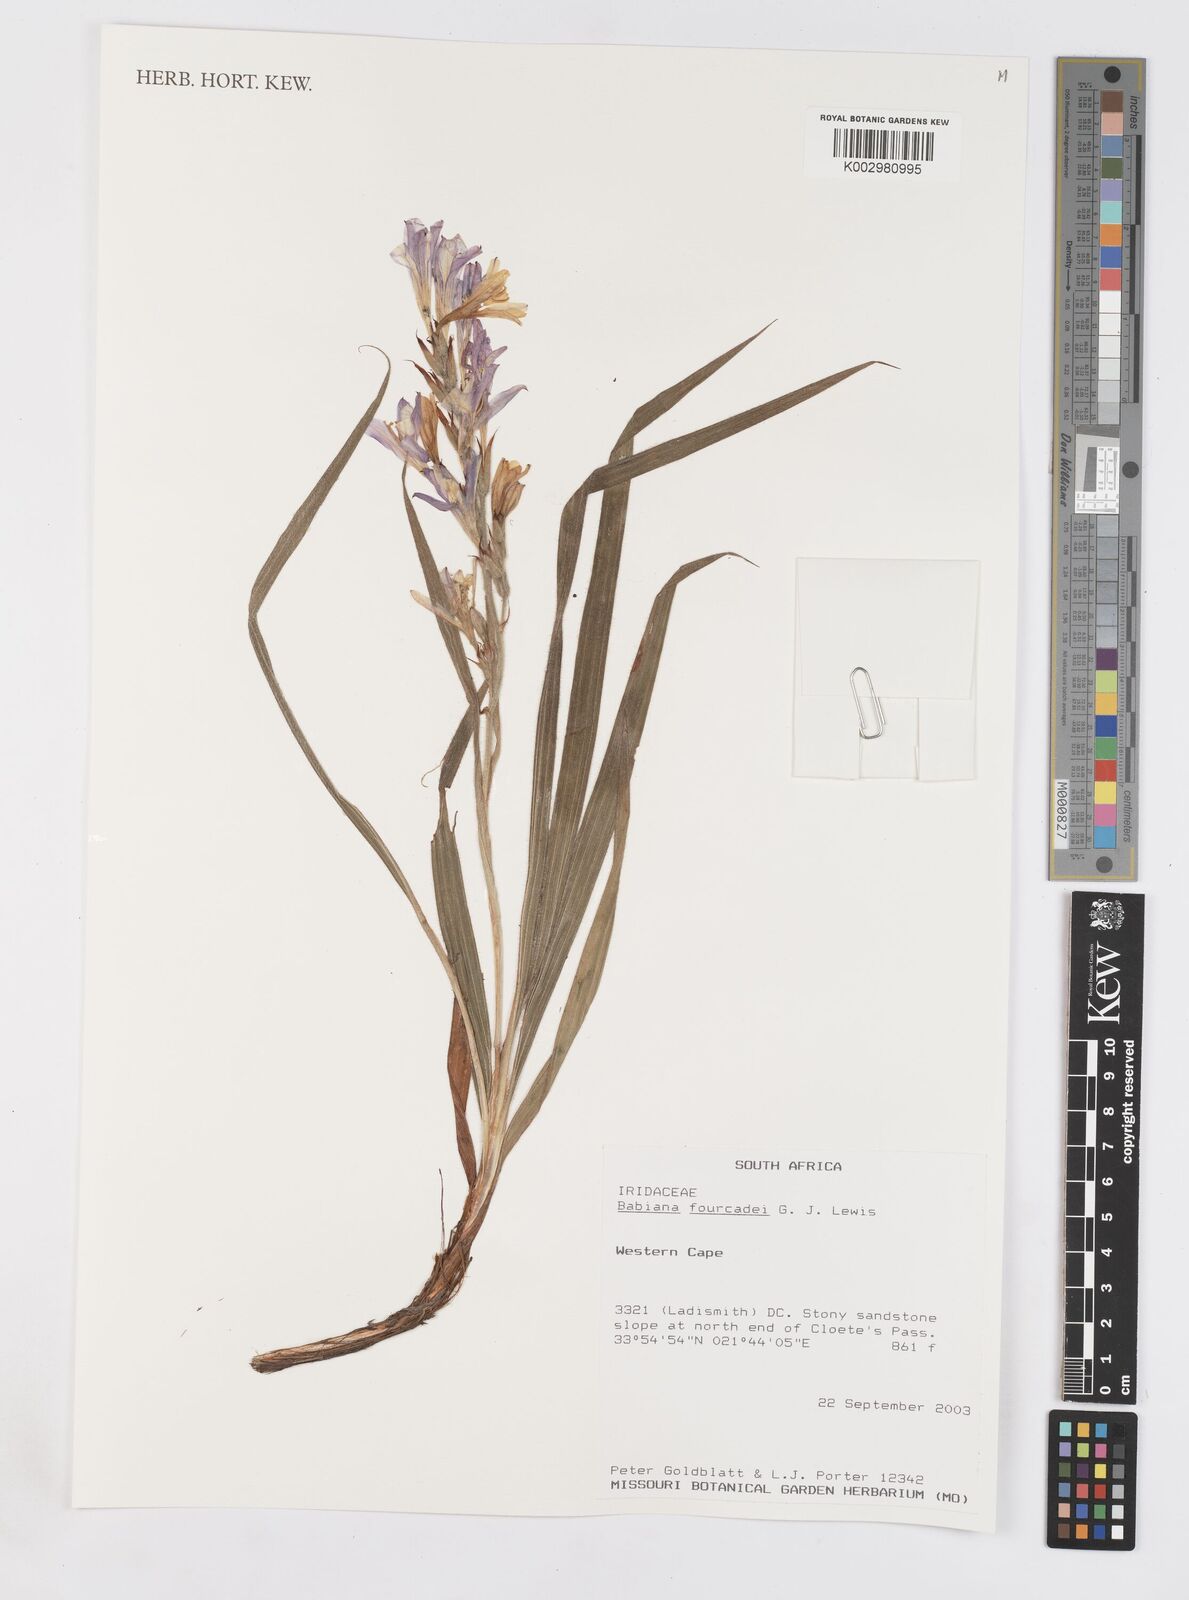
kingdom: Plantae
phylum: Tracheophyta
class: Liliopsida
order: Asparagales
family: Iridaceae
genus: Babiana
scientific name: Babiana fourcadei
